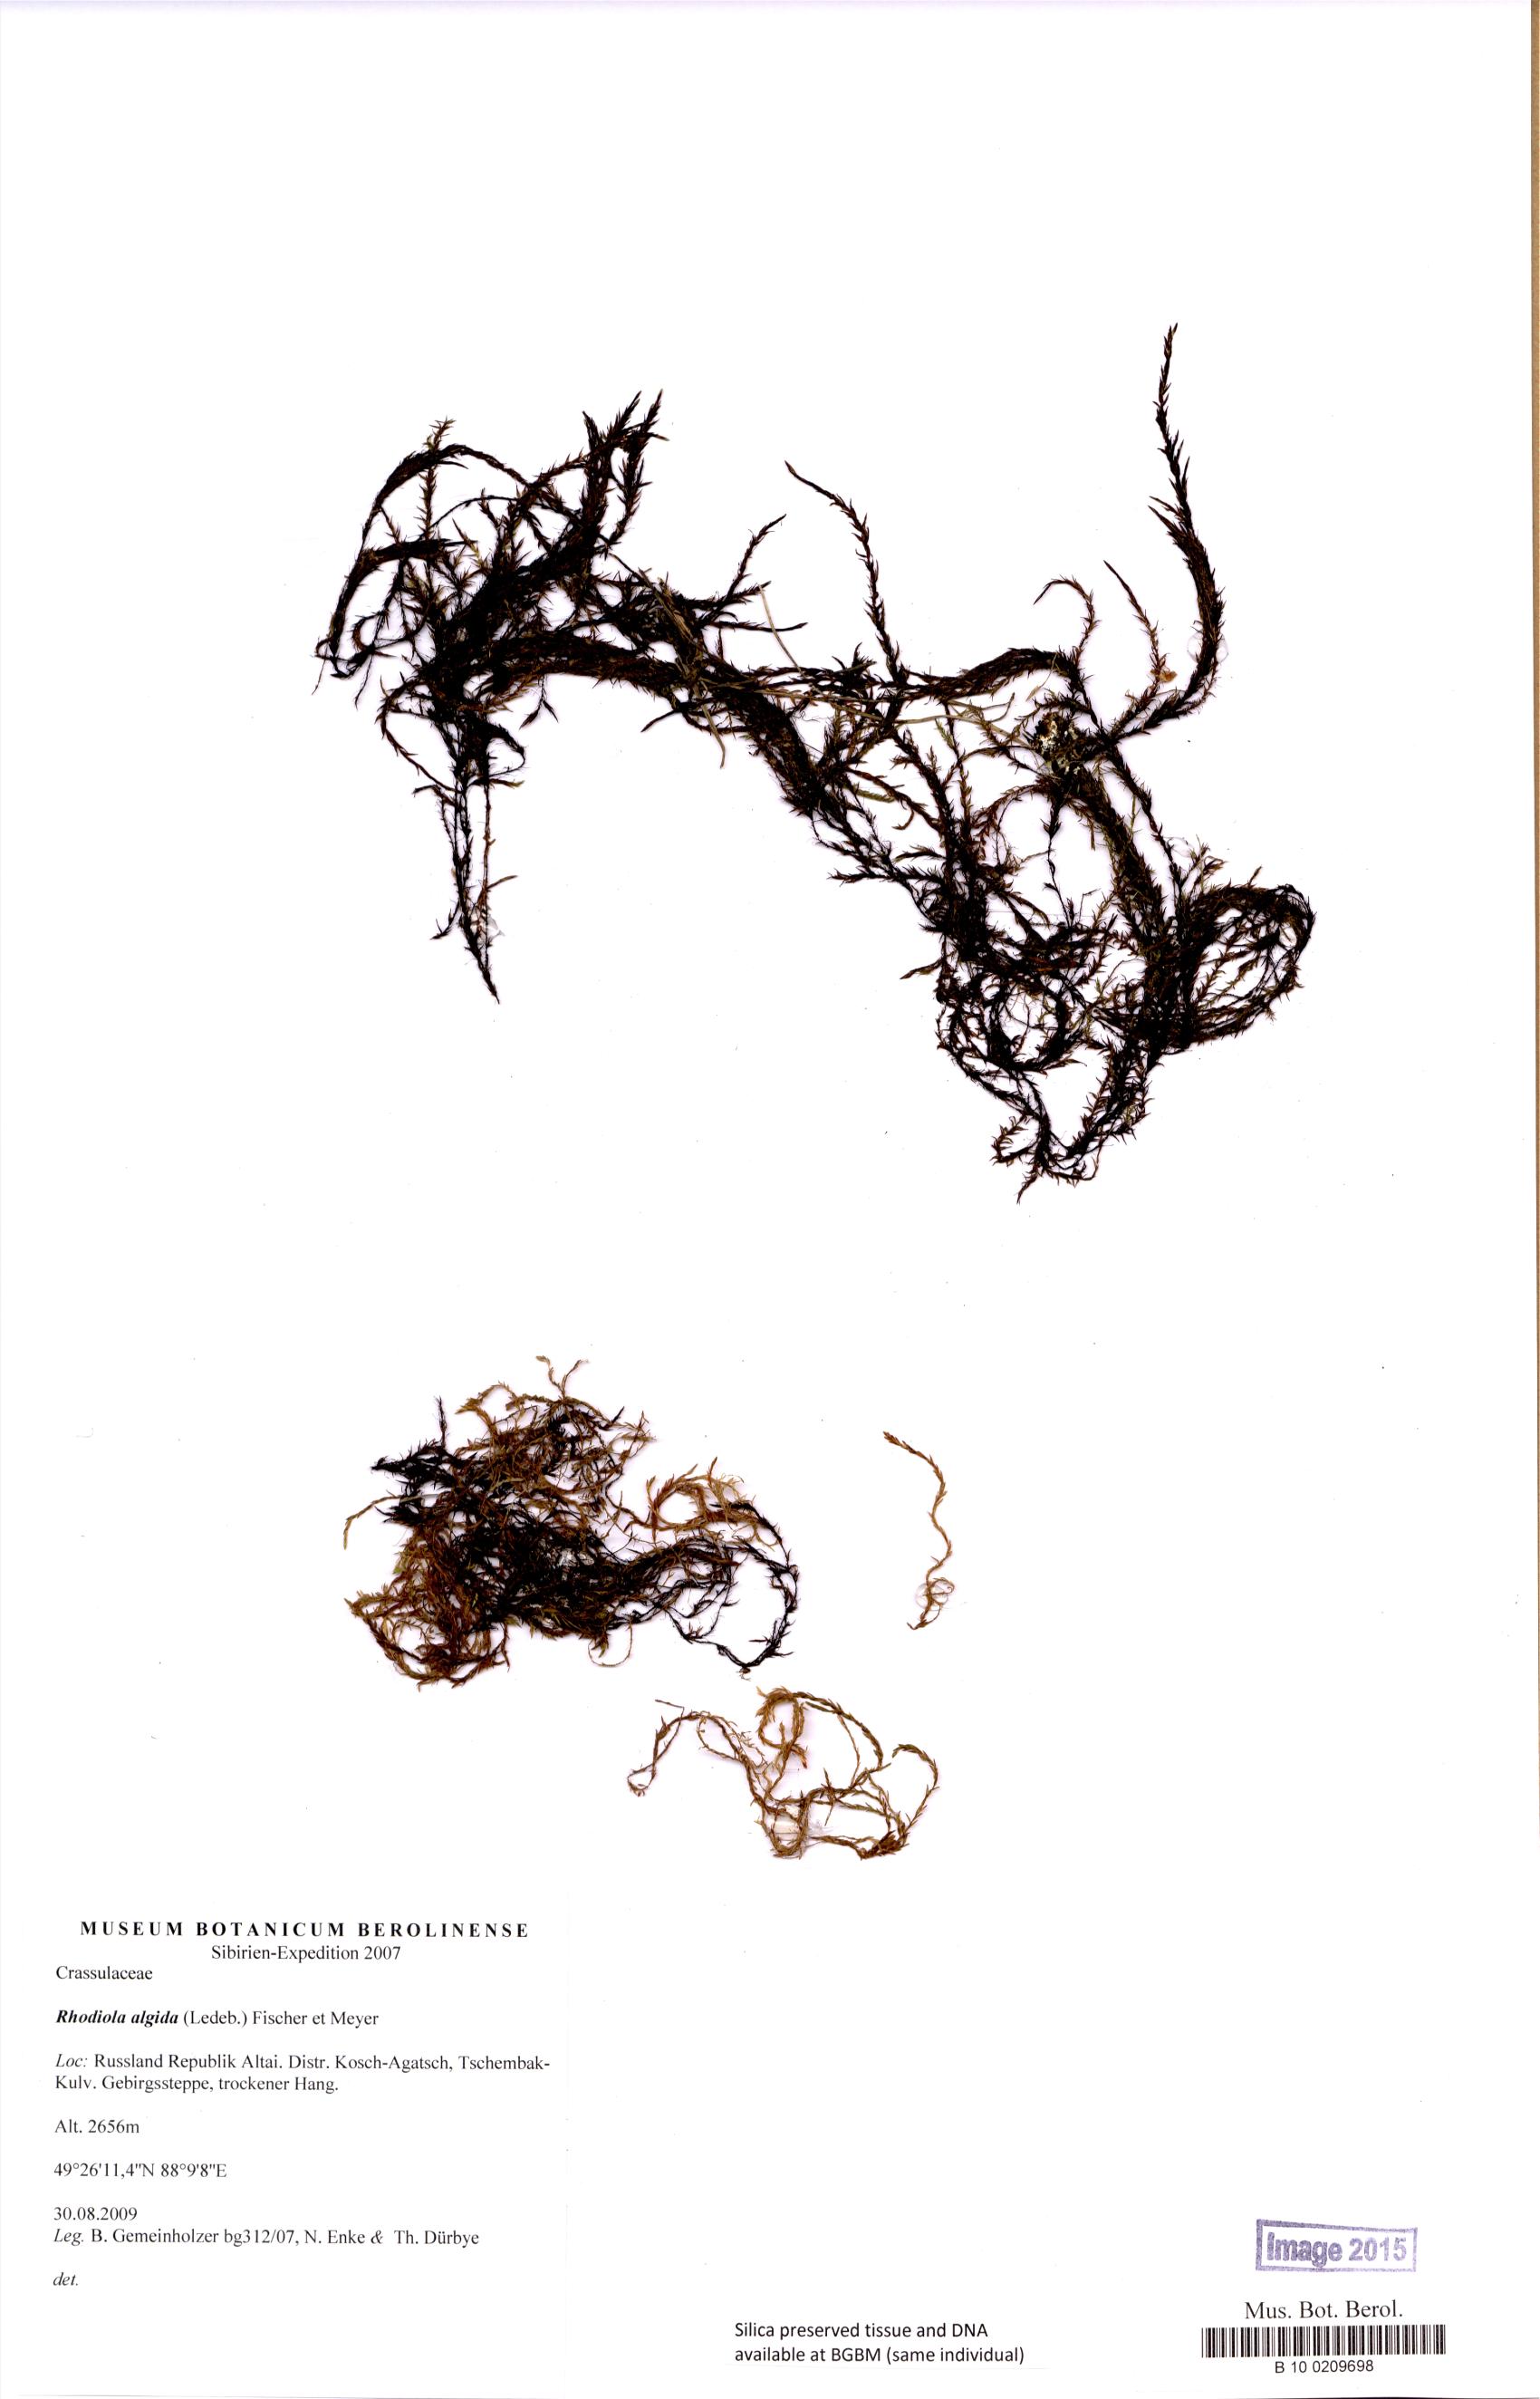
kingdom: Plantae
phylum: Tracheophyta
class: Magnoliopsida
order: Saxifragales
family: Crassulaceae
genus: Rhodiola
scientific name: Rhodiola algida
